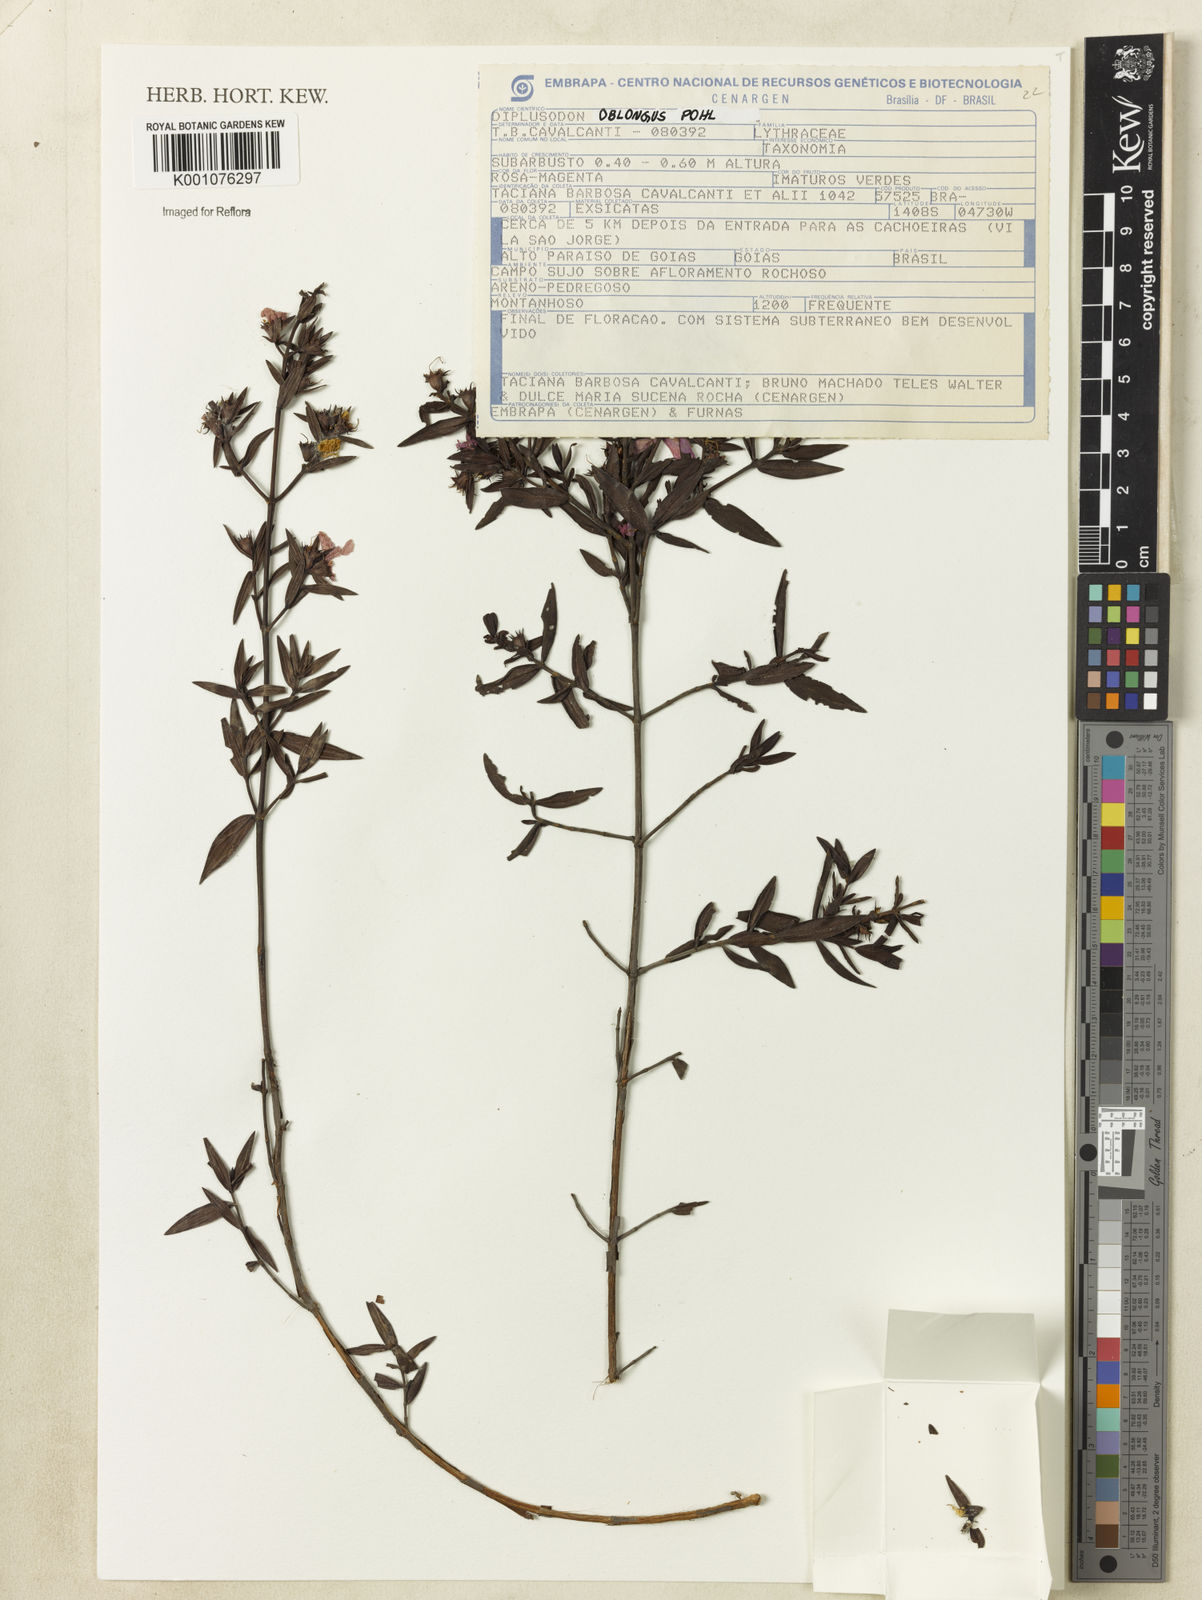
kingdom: Plantae
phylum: Tracheophyta
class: Magnoliopsida
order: Myrtales
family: Lythraceae
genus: Diplusodon
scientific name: Diplusodon oblongus
